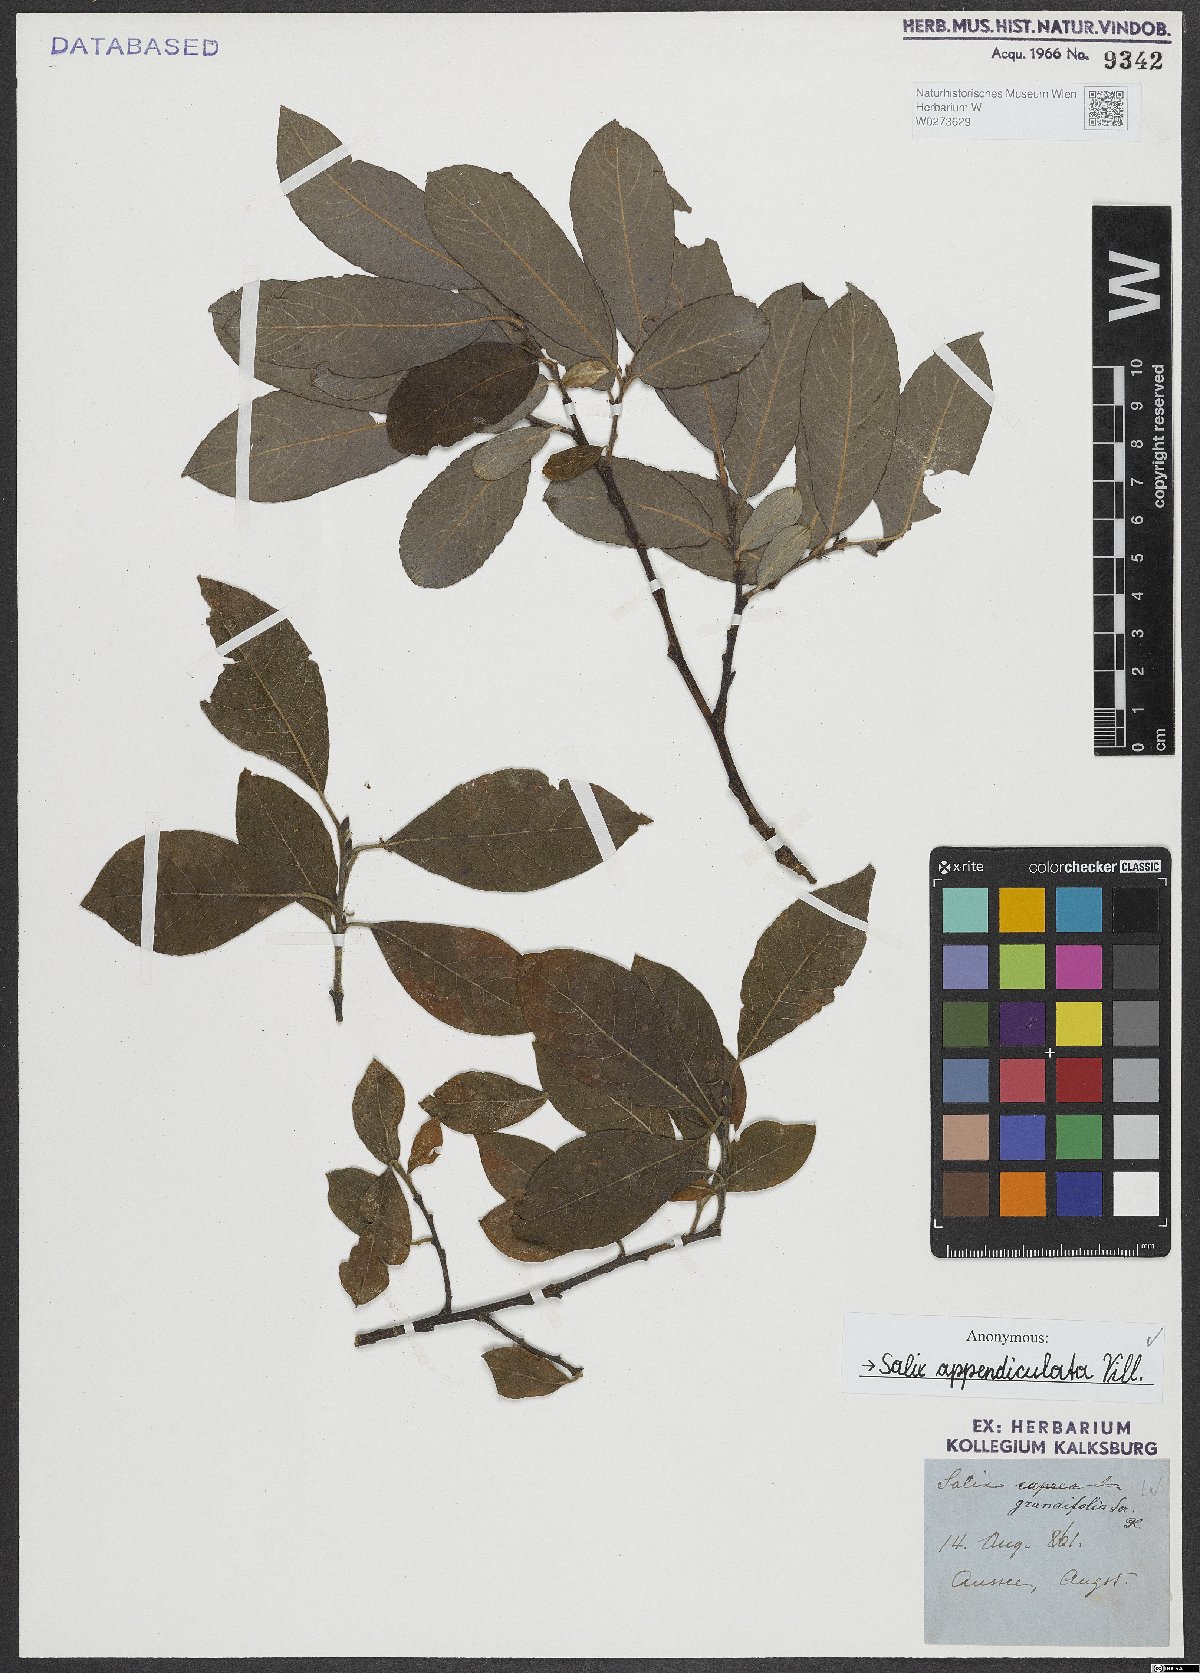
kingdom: Plantae
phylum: Tracheophyta
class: Magnoliopsida
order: Malpighiales
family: Salicaceae
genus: Salix
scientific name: Salix appendiculata
